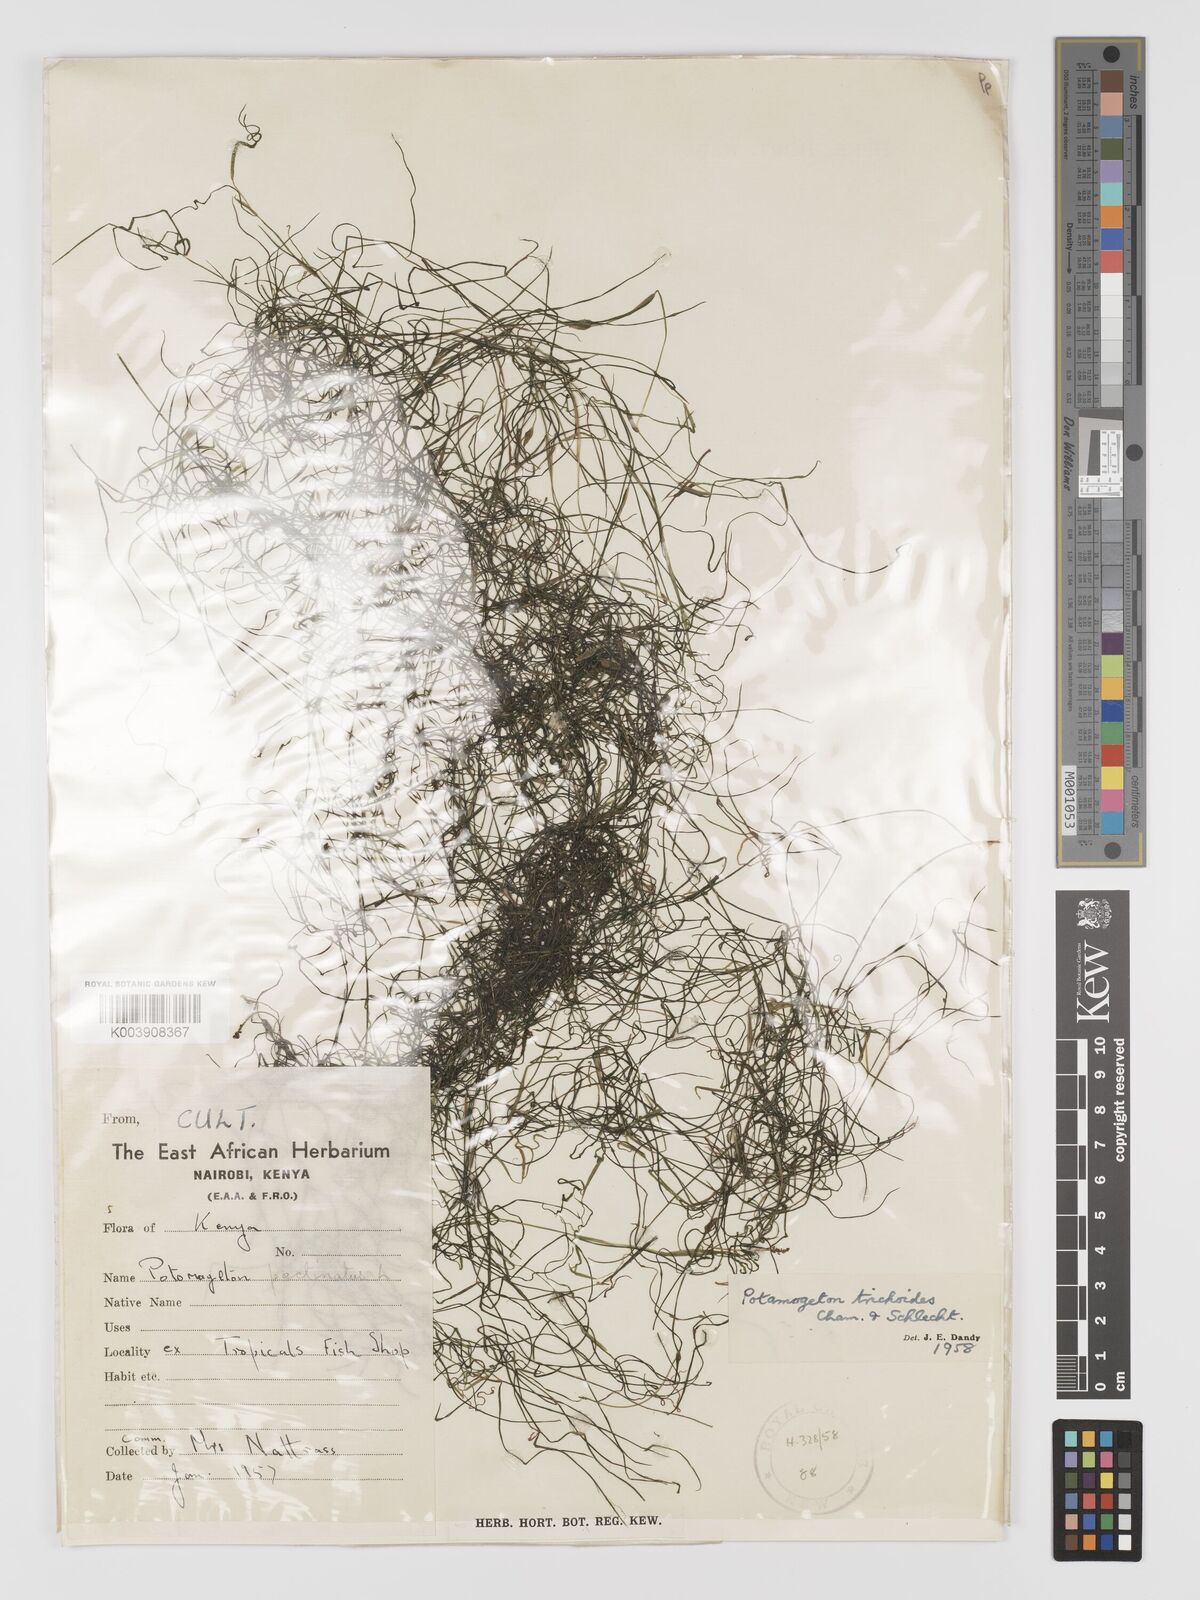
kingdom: Plantae
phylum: Tracheophyta
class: Liliopsida
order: Alismatales
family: Potamogetonaceae
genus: Stuckenia
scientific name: Stuckenia pectinata
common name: Sago pondweed
